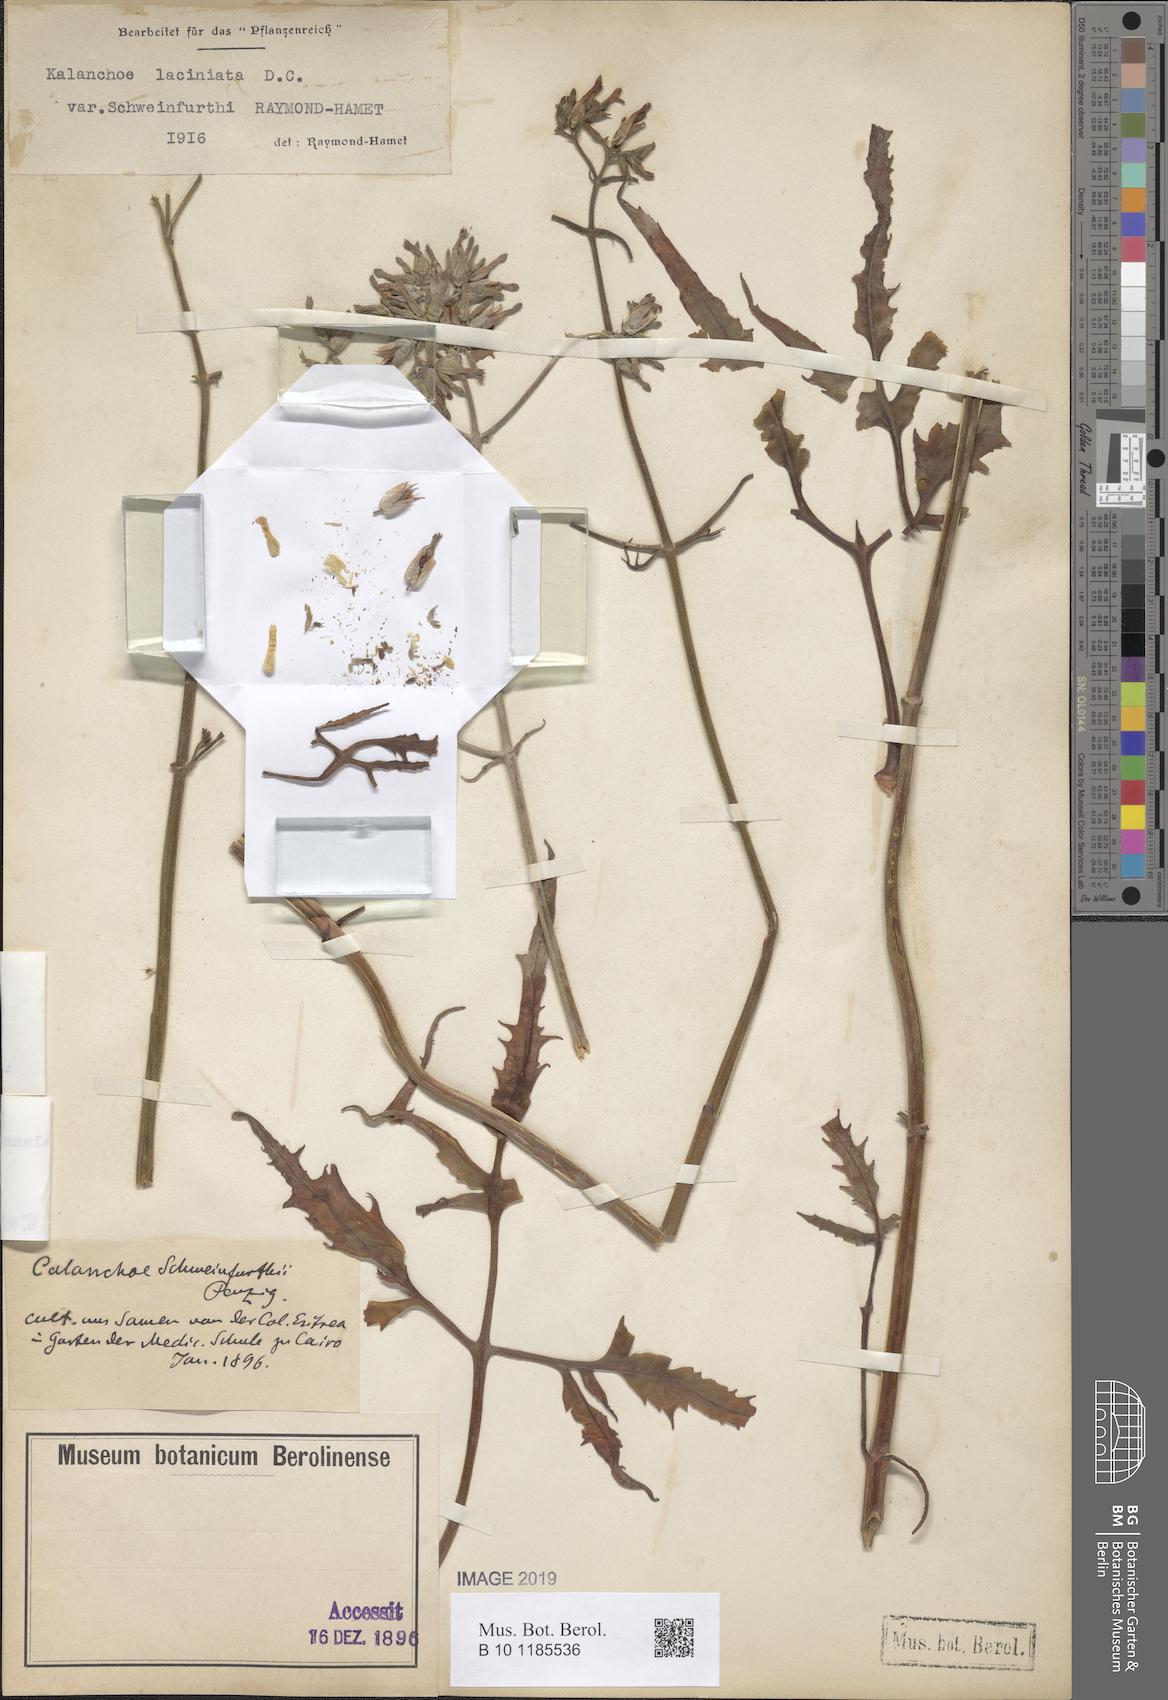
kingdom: Plantae
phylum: Tracheophyta
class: Magnoliopsida
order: Saxifragales
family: Crassulaceae
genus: Kalanchoe
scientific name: Kalanchoe laciniata
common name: Christmastree plant
